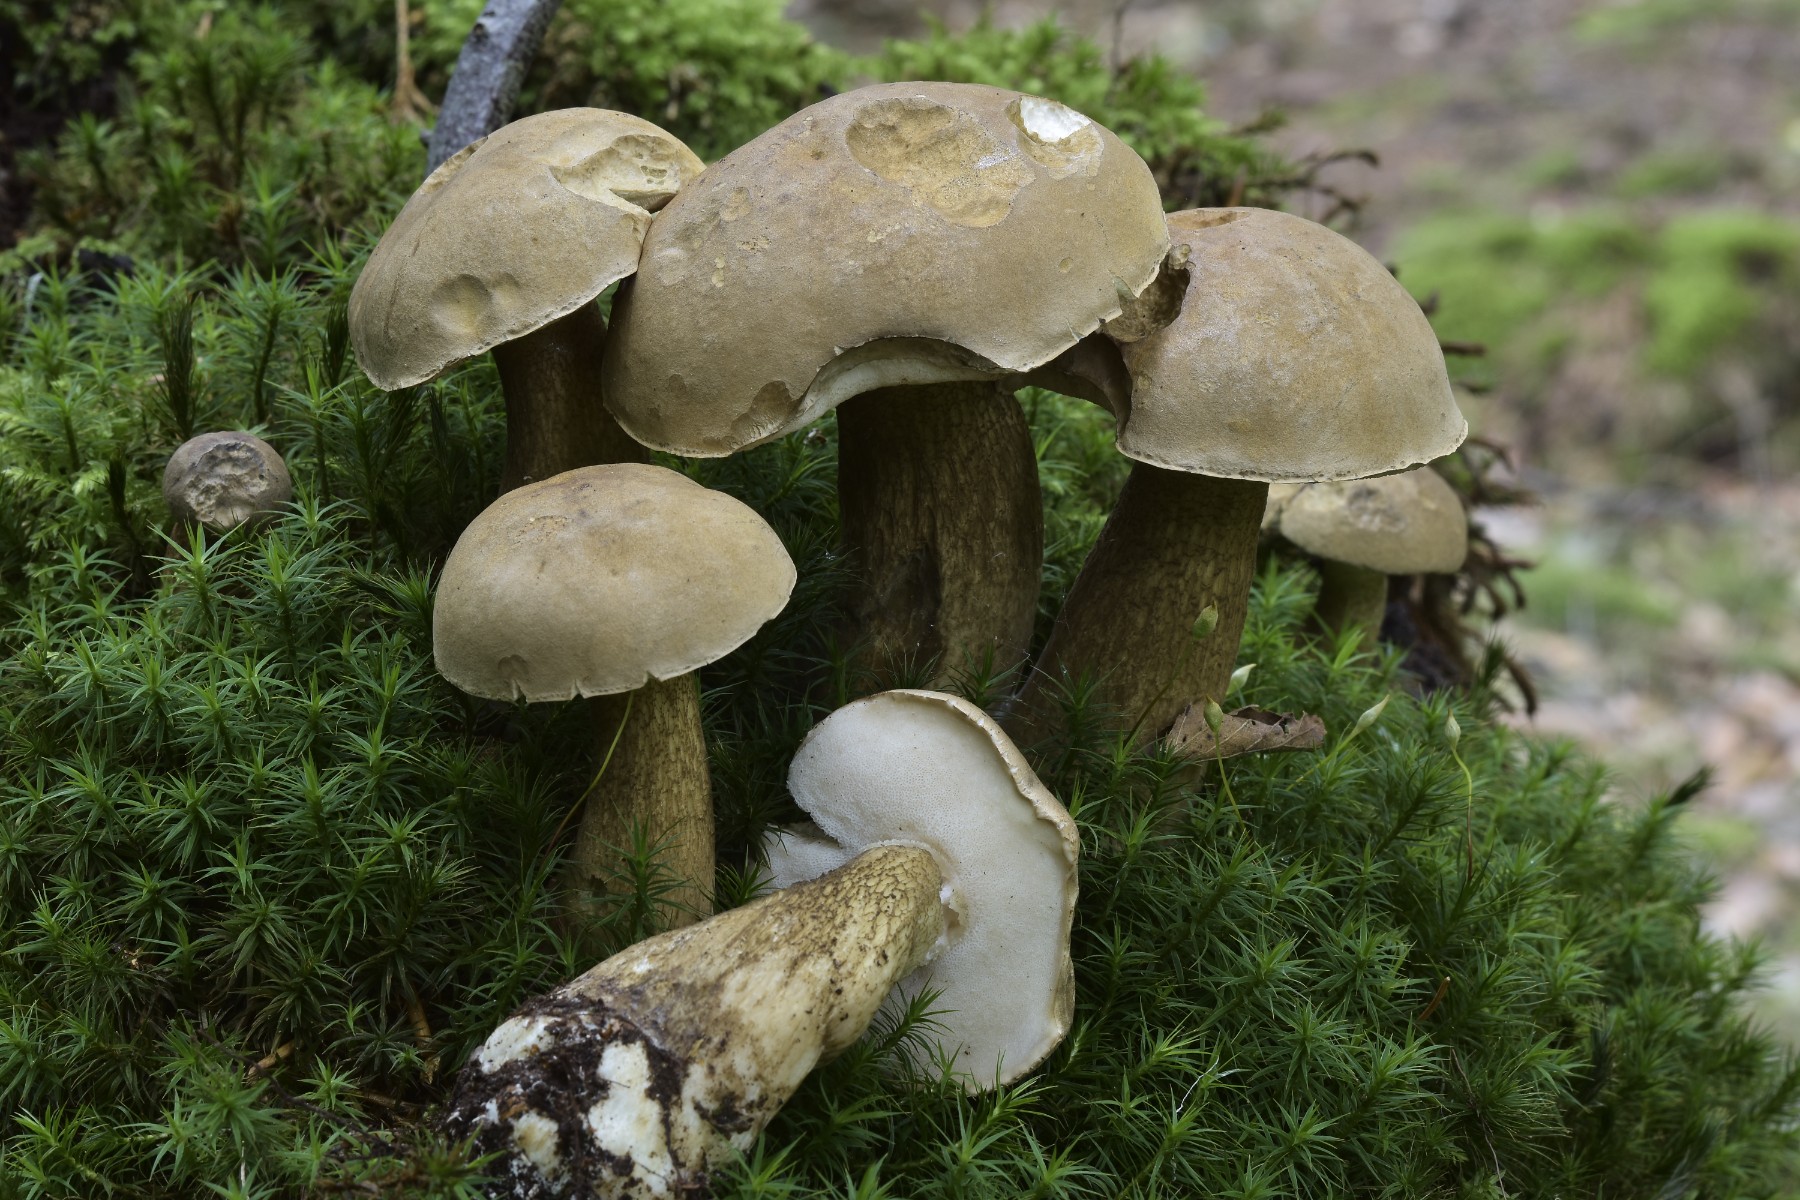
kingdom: Fungi
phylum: Basidiomycota
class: Agaricomycetes
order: Boletales
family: Boletaceae
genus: Tylopilus
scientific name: Tylopilus felleus
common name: galderørhat
